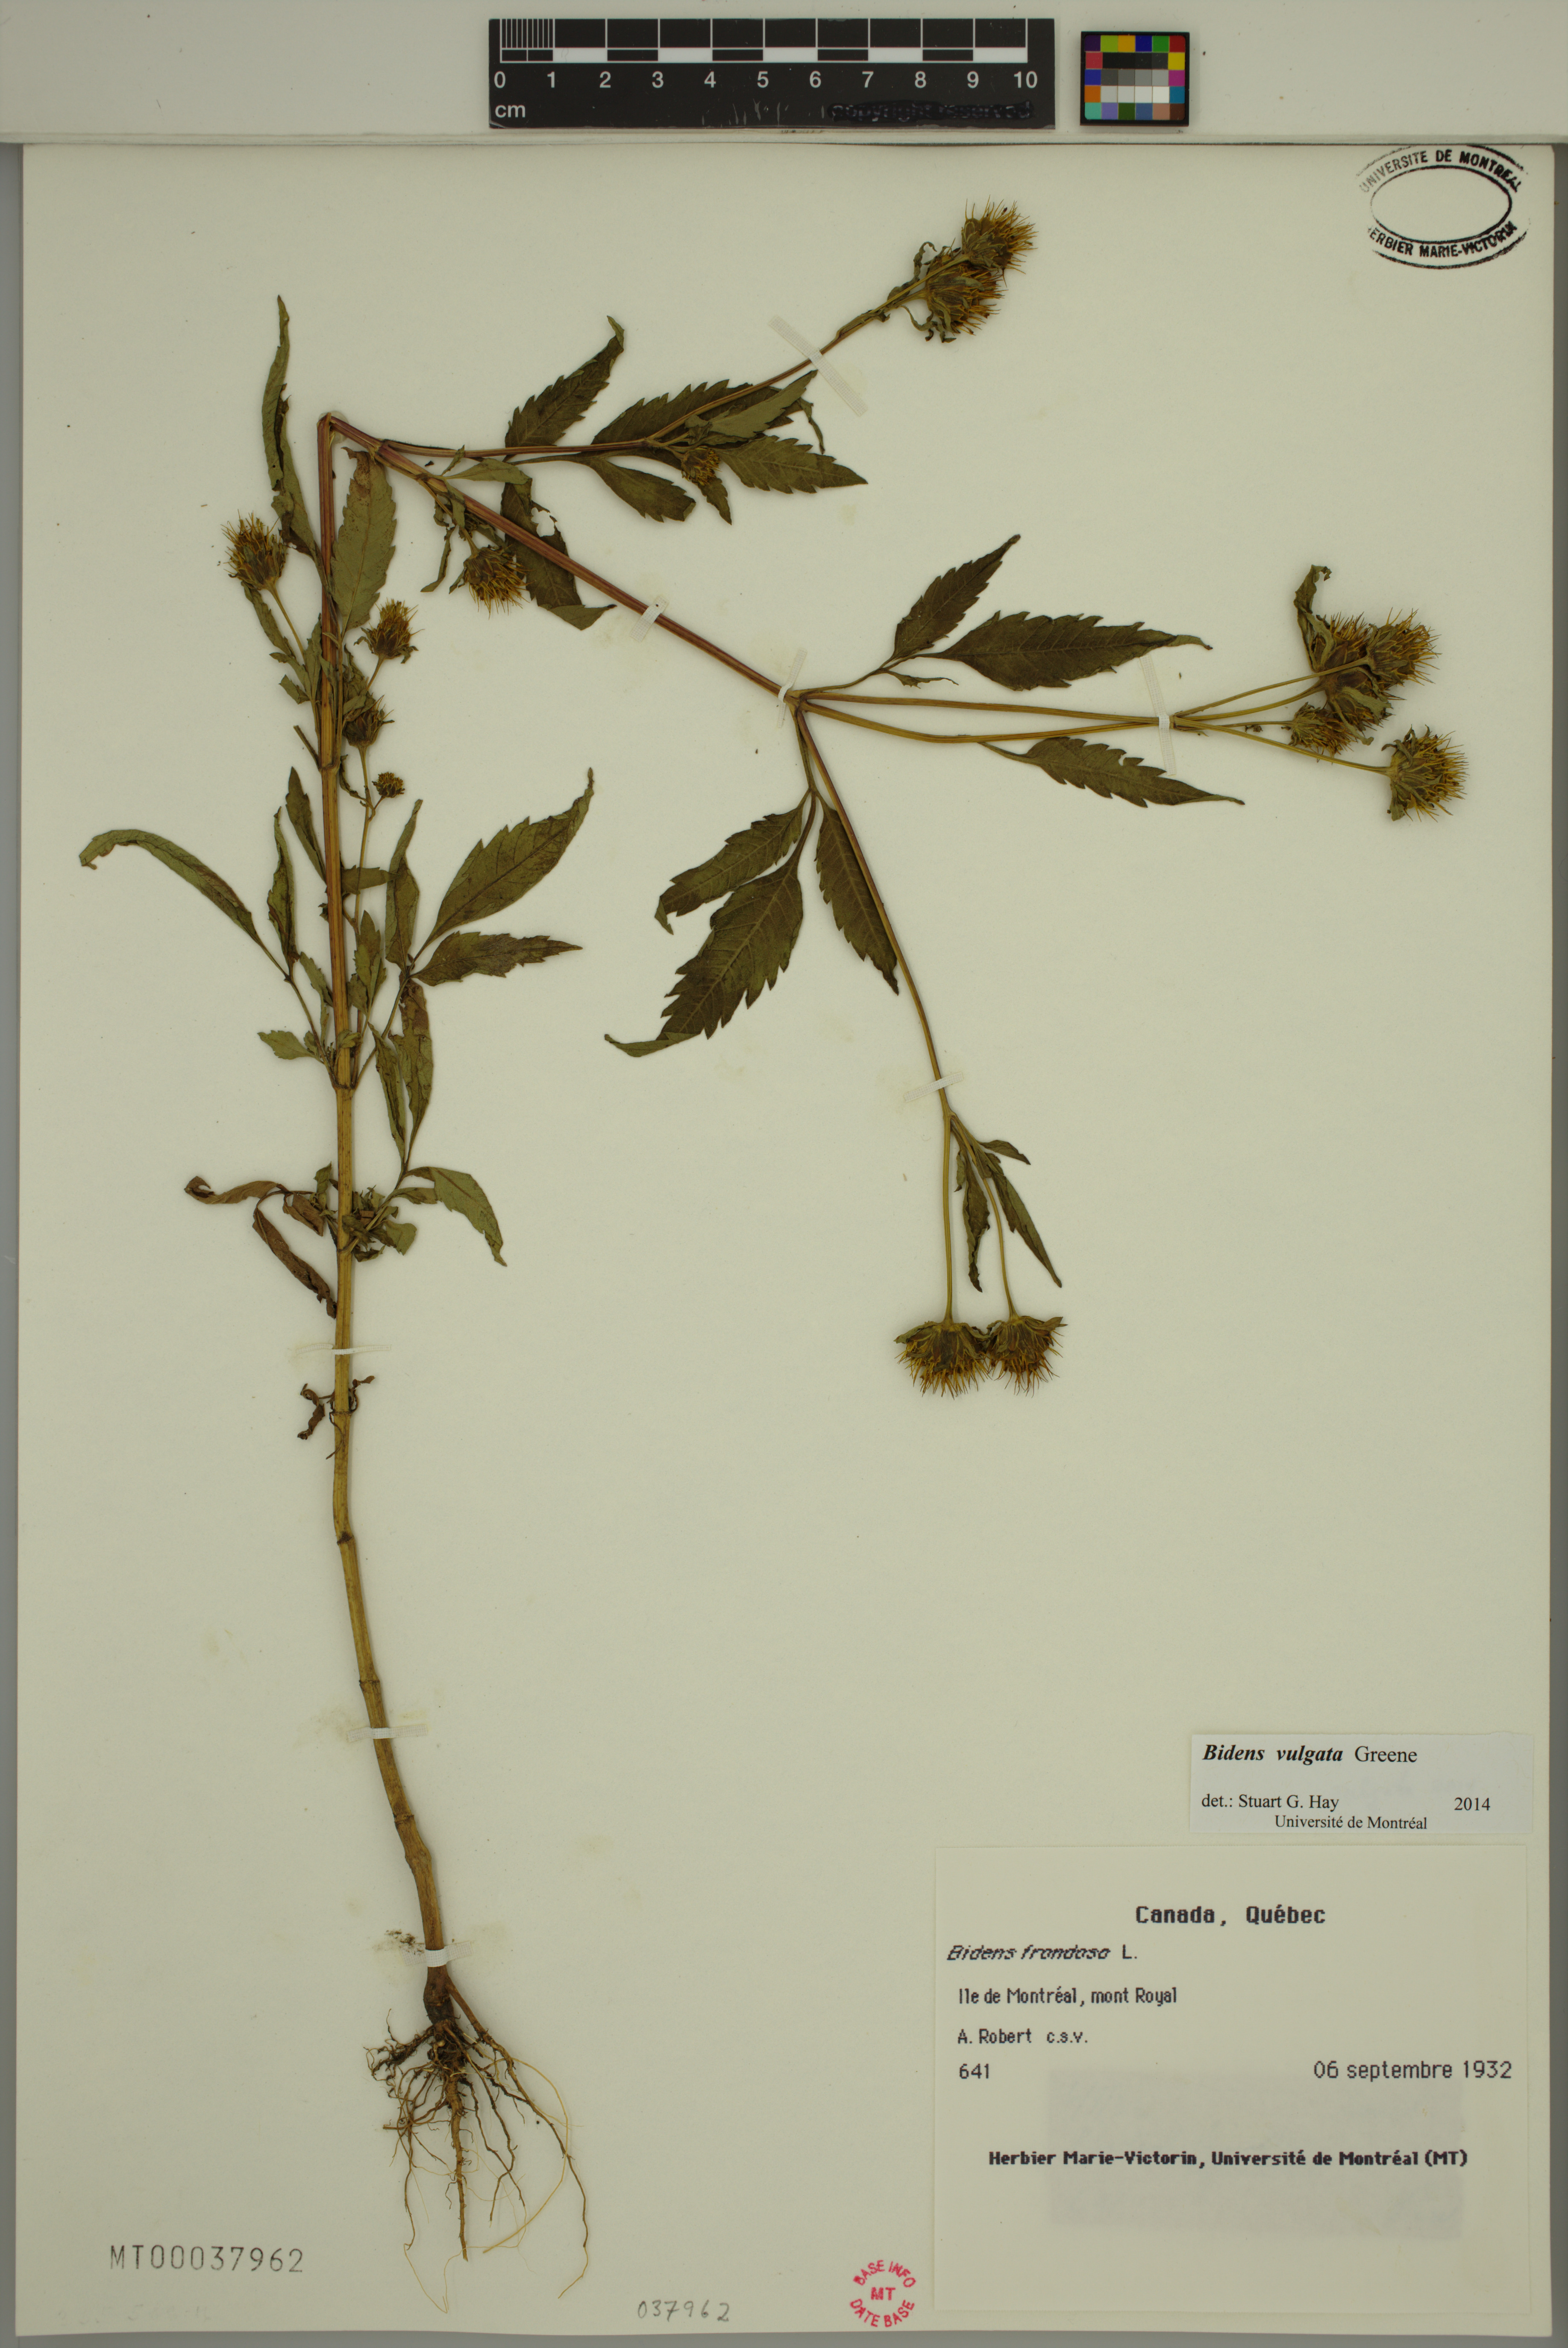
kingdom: Plantae
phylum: Tracheophyta
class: Magnoliopsida
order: Asterales
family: Asteraceae
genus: Bidens
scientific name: Bidens vulgata
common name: Tall beggarticks
